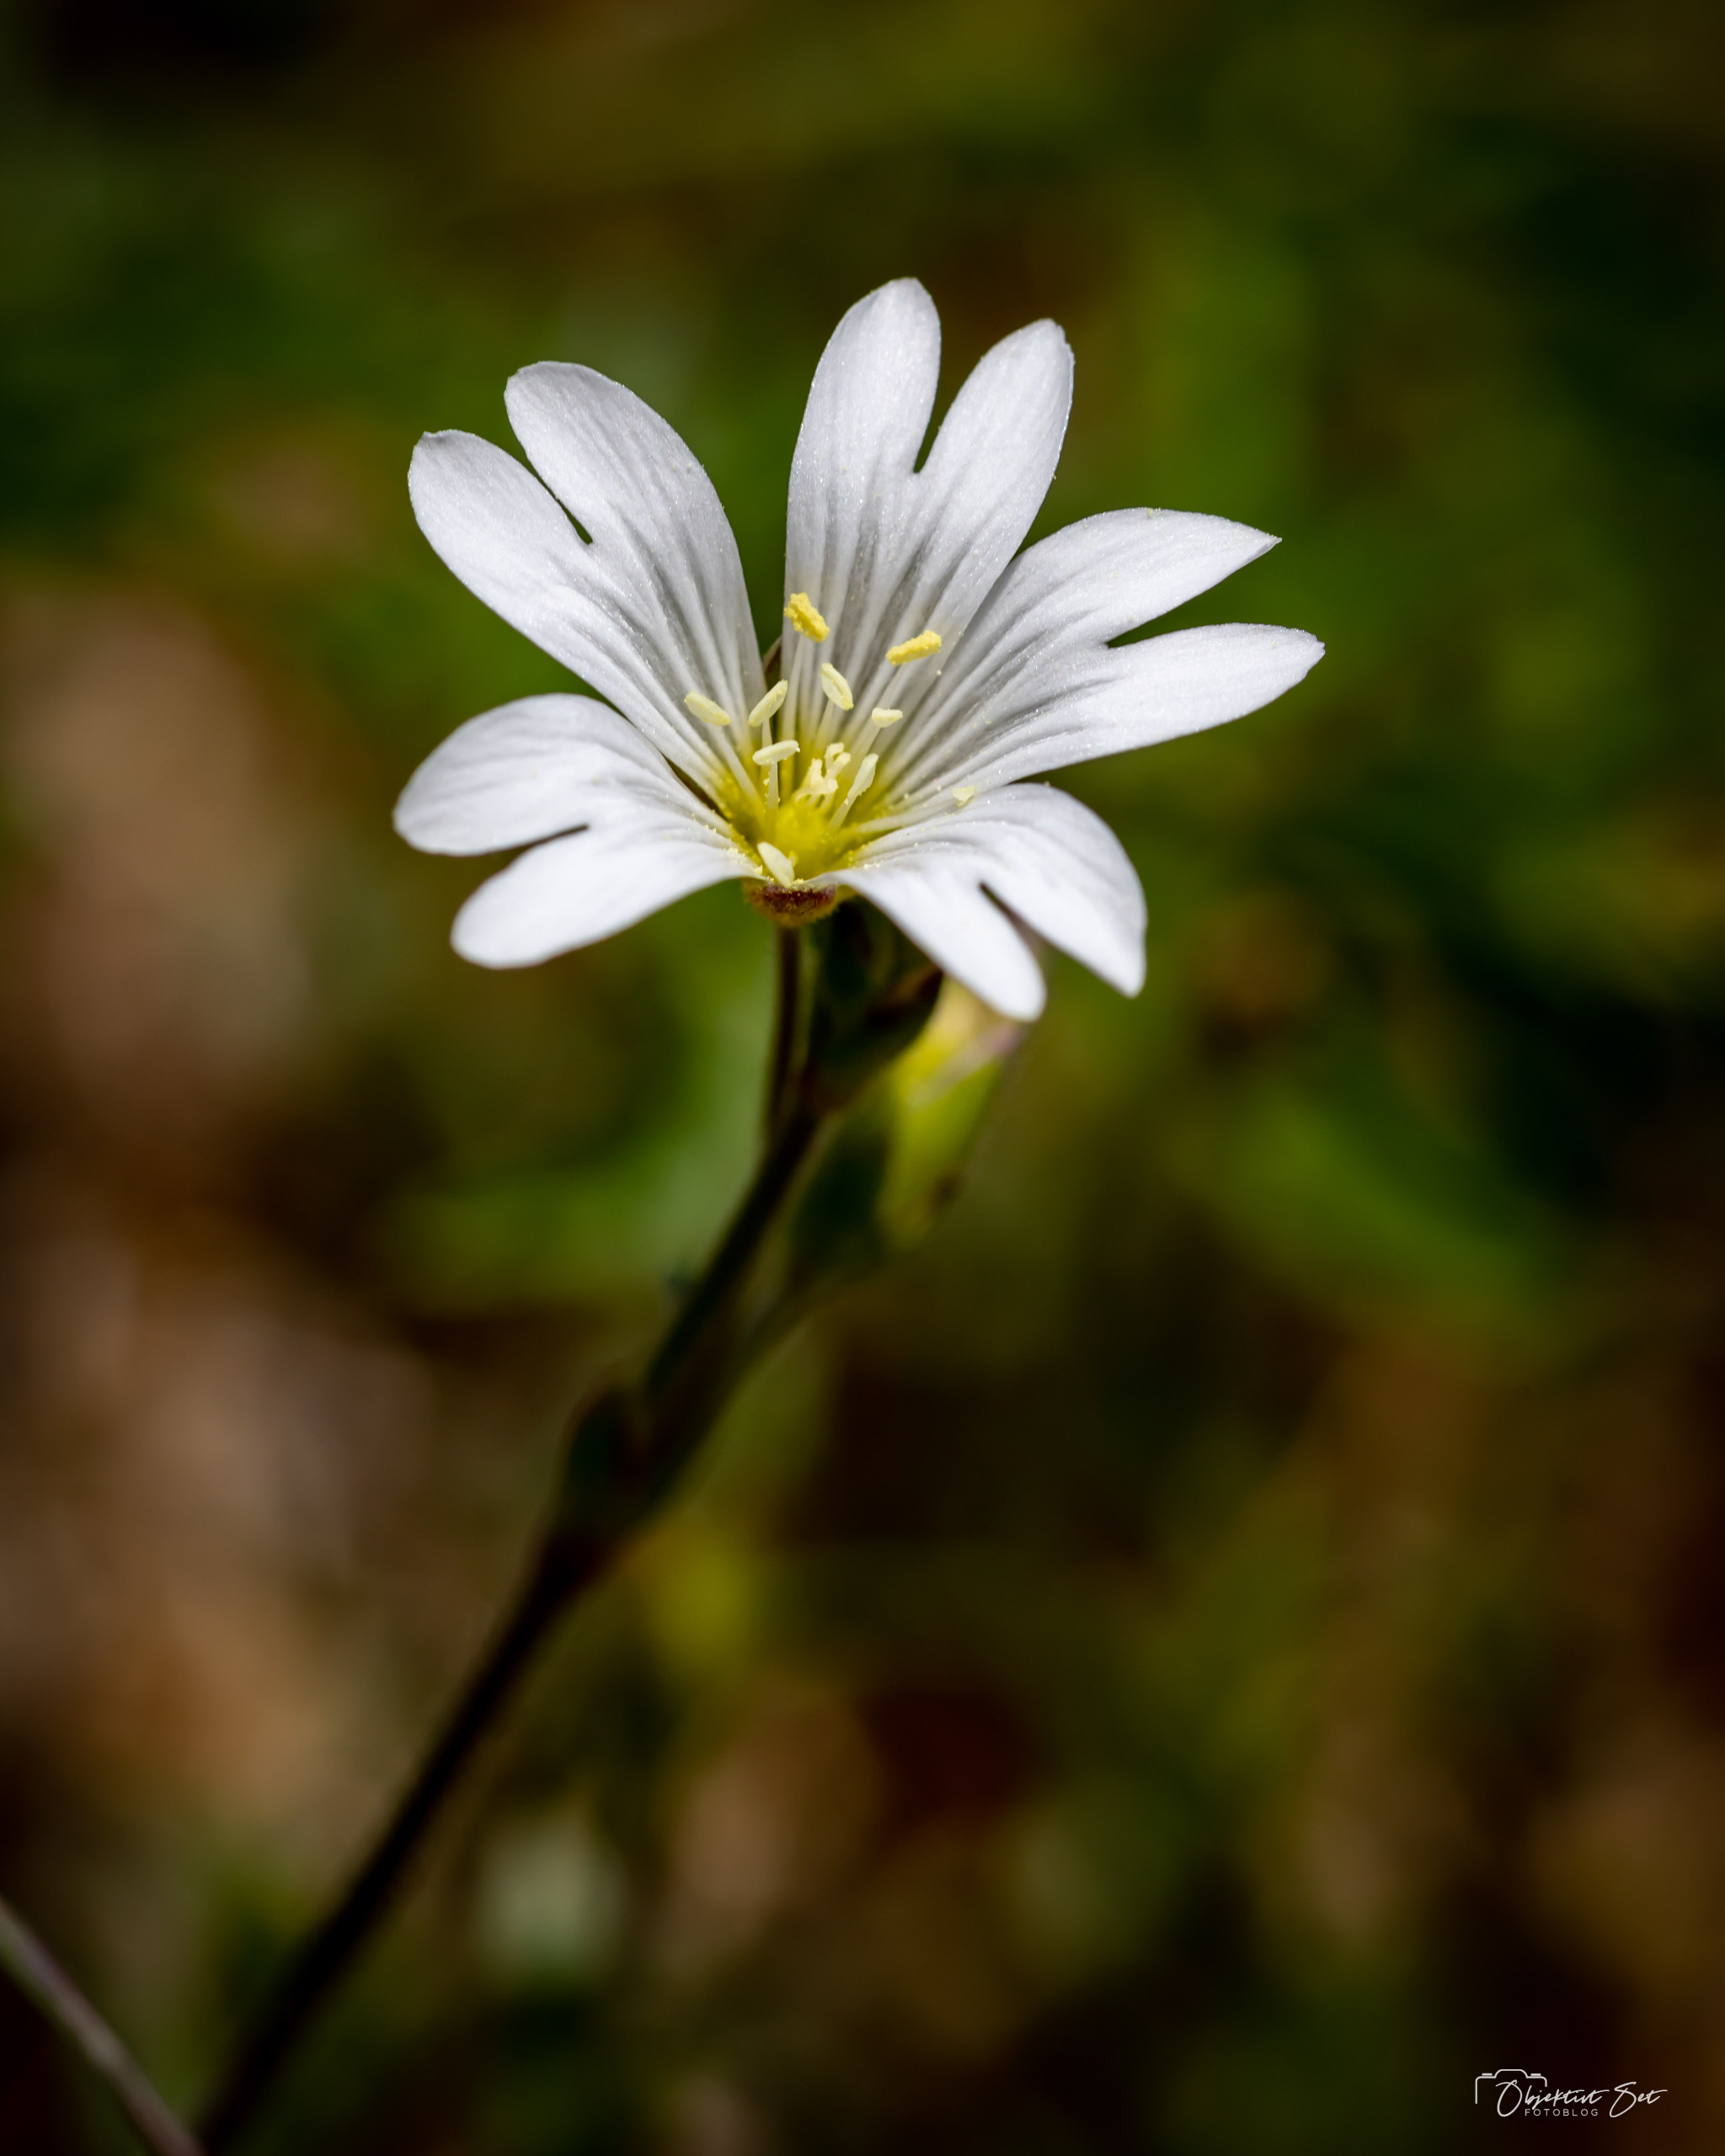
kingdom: Plantae
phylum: Tracheophyta
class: Magnoliopsida
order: Caryophyllales
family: Caryophyllaceae
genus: Cerastium
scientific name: Cerastium arvense
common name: Storblomstret hønsetarm
